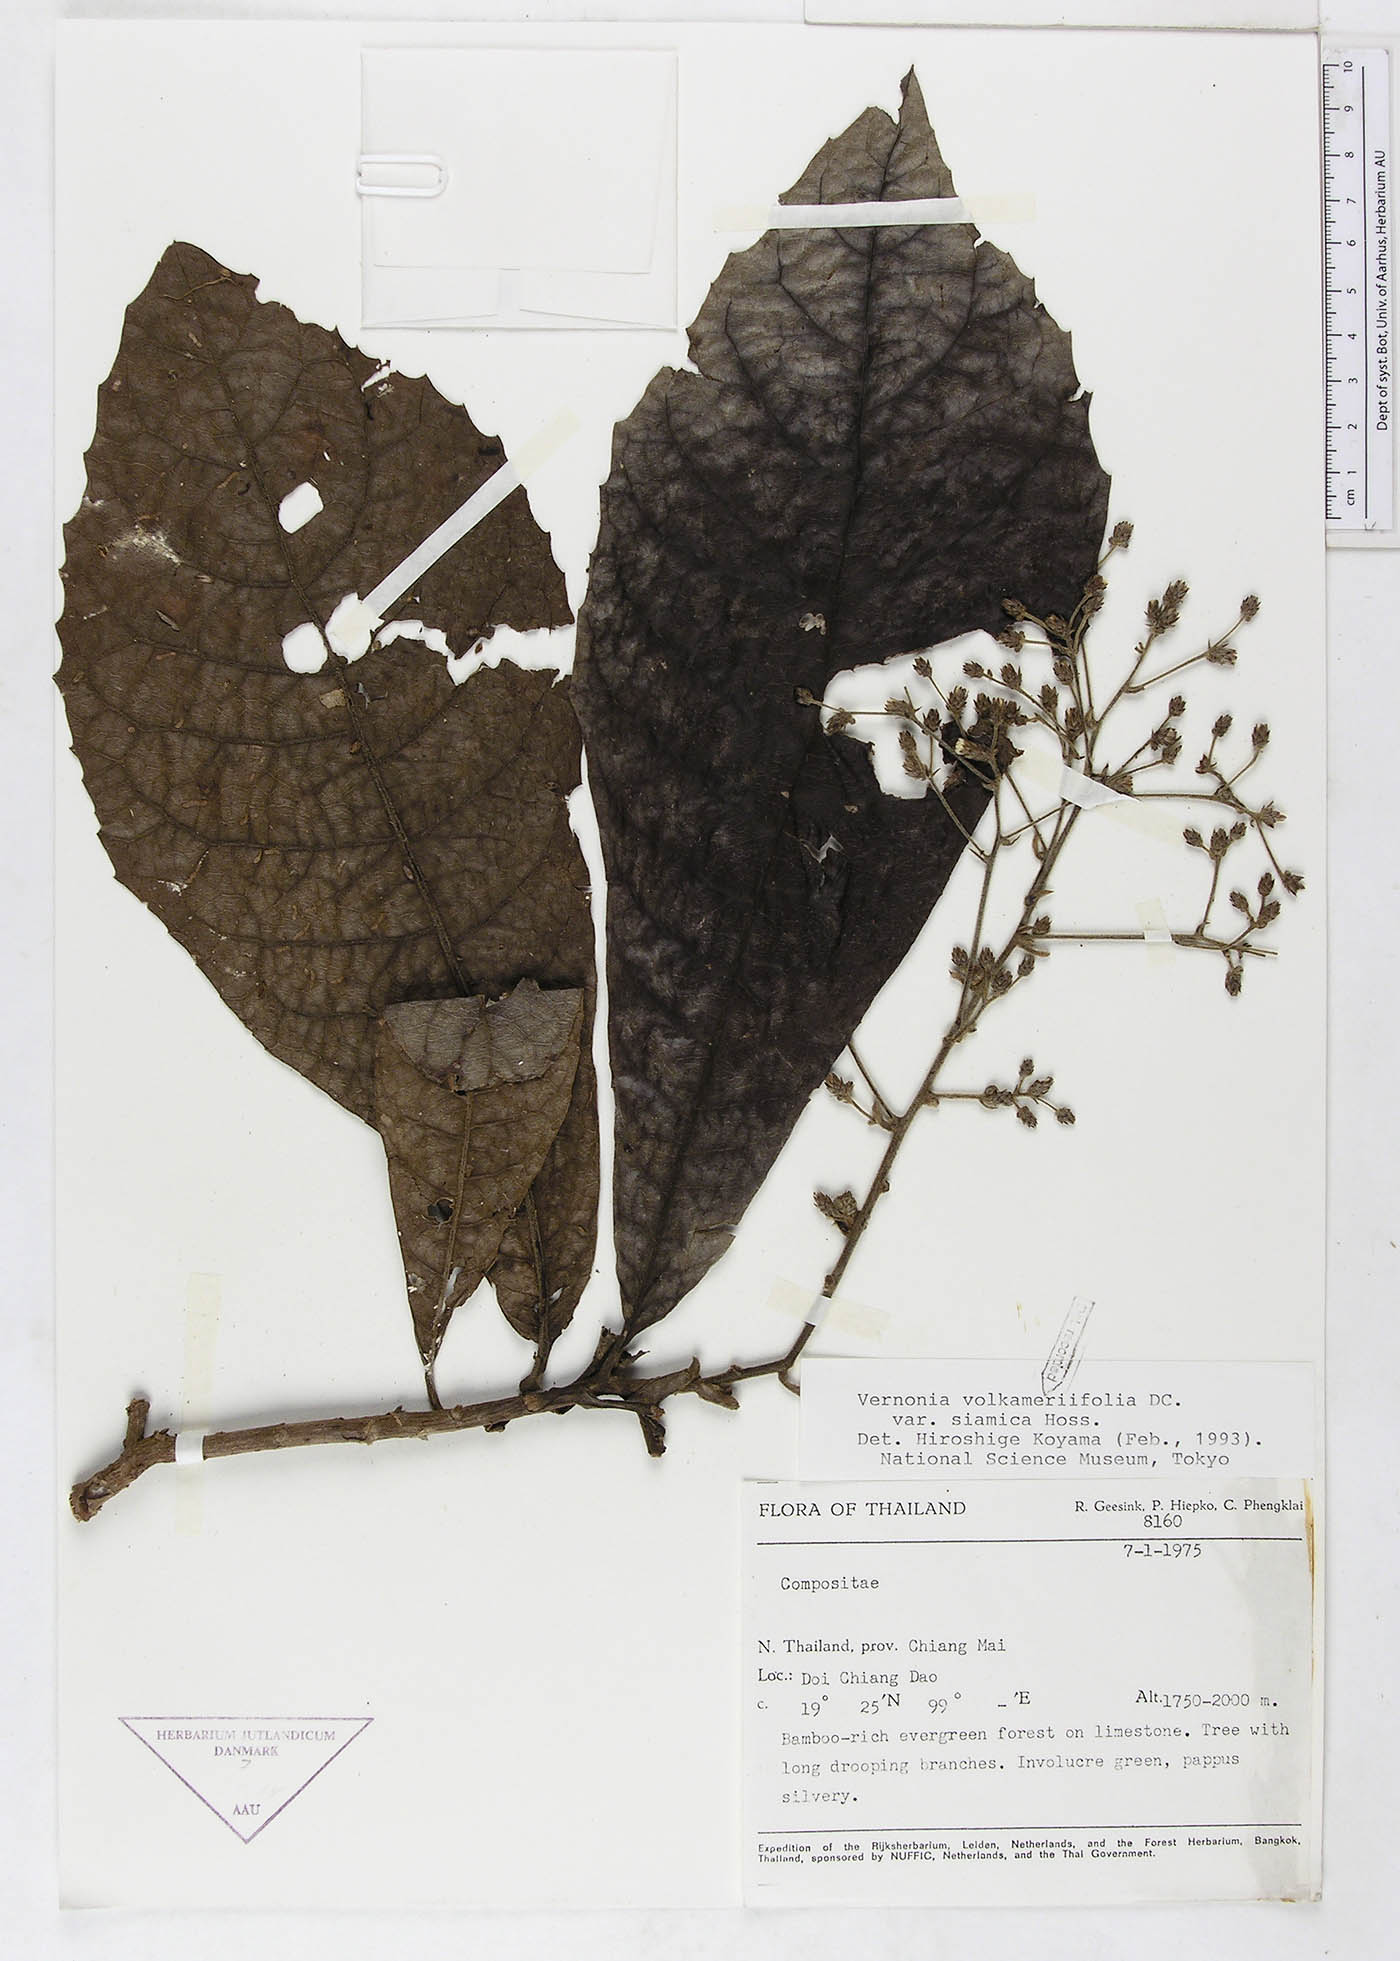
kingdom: Plantae
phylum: Tracheophyta
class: Magnoliopsida
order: Asterales
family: Asteraceae
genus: Monosis
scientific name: Monosis volkameriifolia
